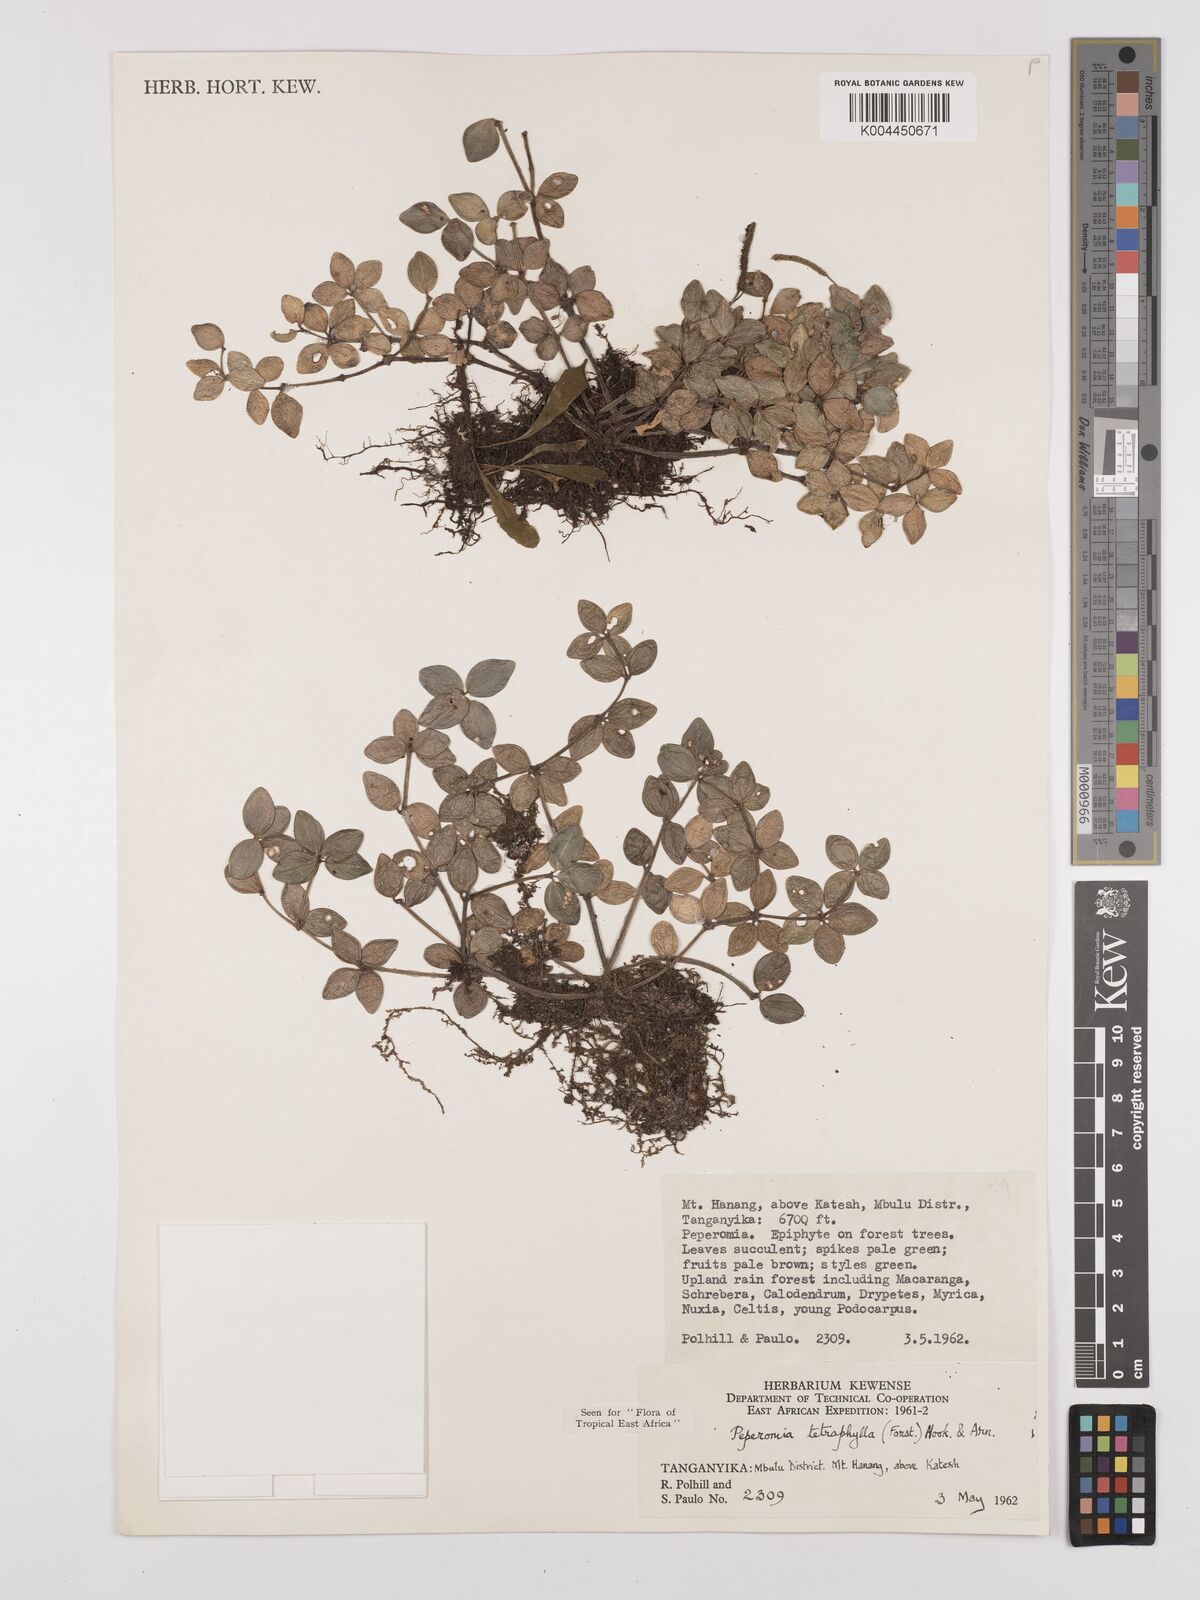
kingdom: Plantae
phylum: Tracheophyta
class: Magnoliopsida
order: Piperales
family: Piperaceae
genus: Peperomia
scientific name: Peperomia tetraphylla
